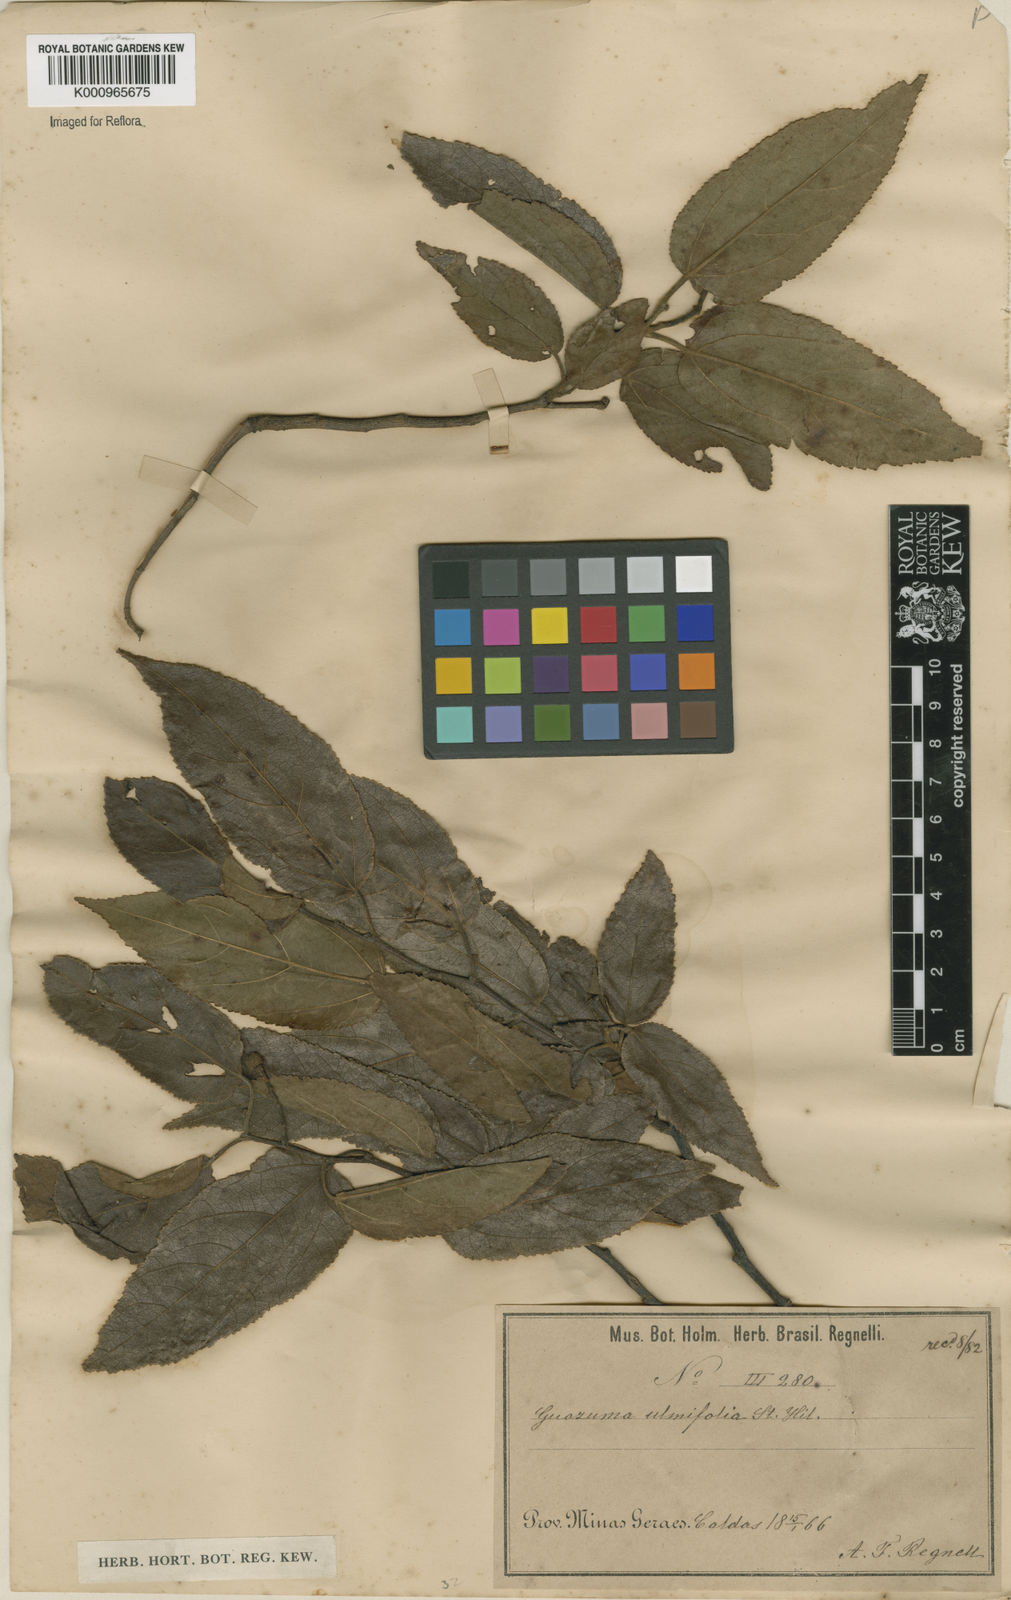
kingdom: Plantae
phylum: Tracheophyta
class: Magnoliopsida
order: Malvales
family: Malvaceae
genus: Guazuma
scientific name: Guazuma ulmifolia
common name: Bastard-cedar
